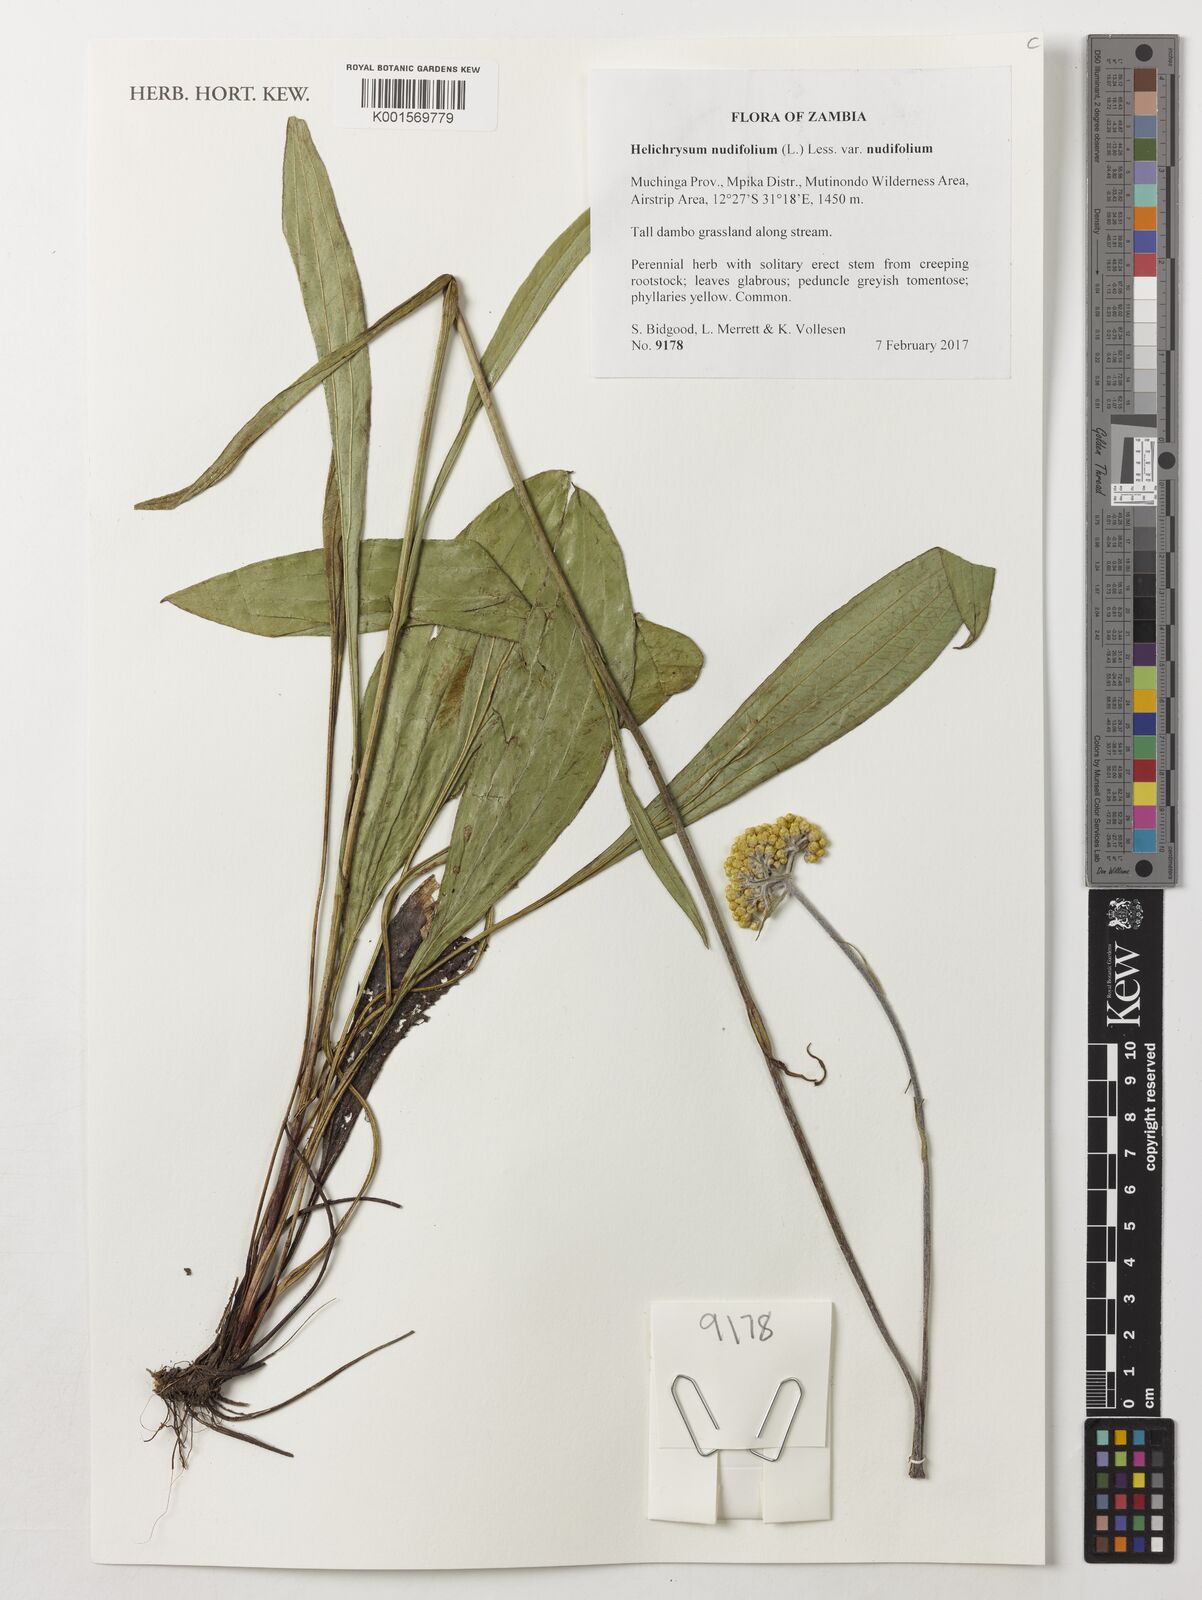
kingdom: Plantae
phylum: Tracheophyta
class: Magnoliopsida
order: Asterales
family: Asteraceae
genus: Helichrysum
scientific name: Helichrysum nudifolium
